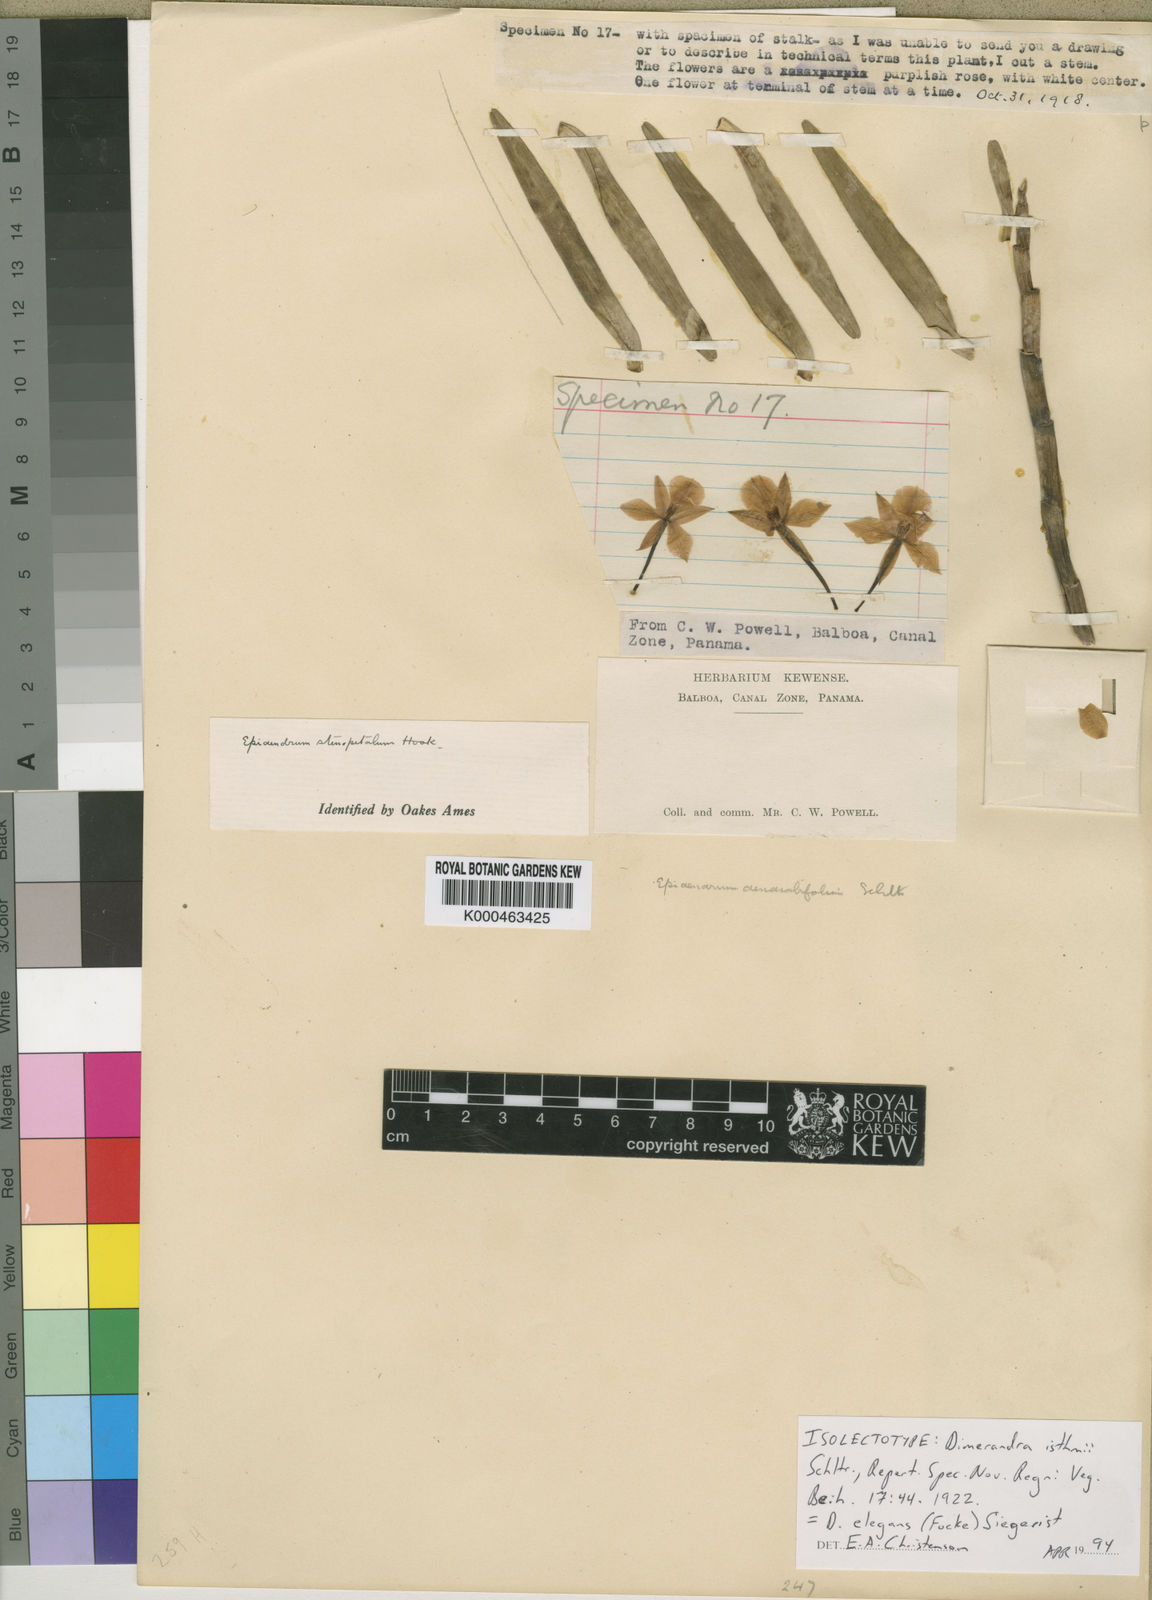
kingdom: Plantae
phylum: Tracheophyta
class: Liliopsida
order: Asparagales
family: Orchidaceae
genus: Dimerandra
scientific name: Dimerandra elegans
